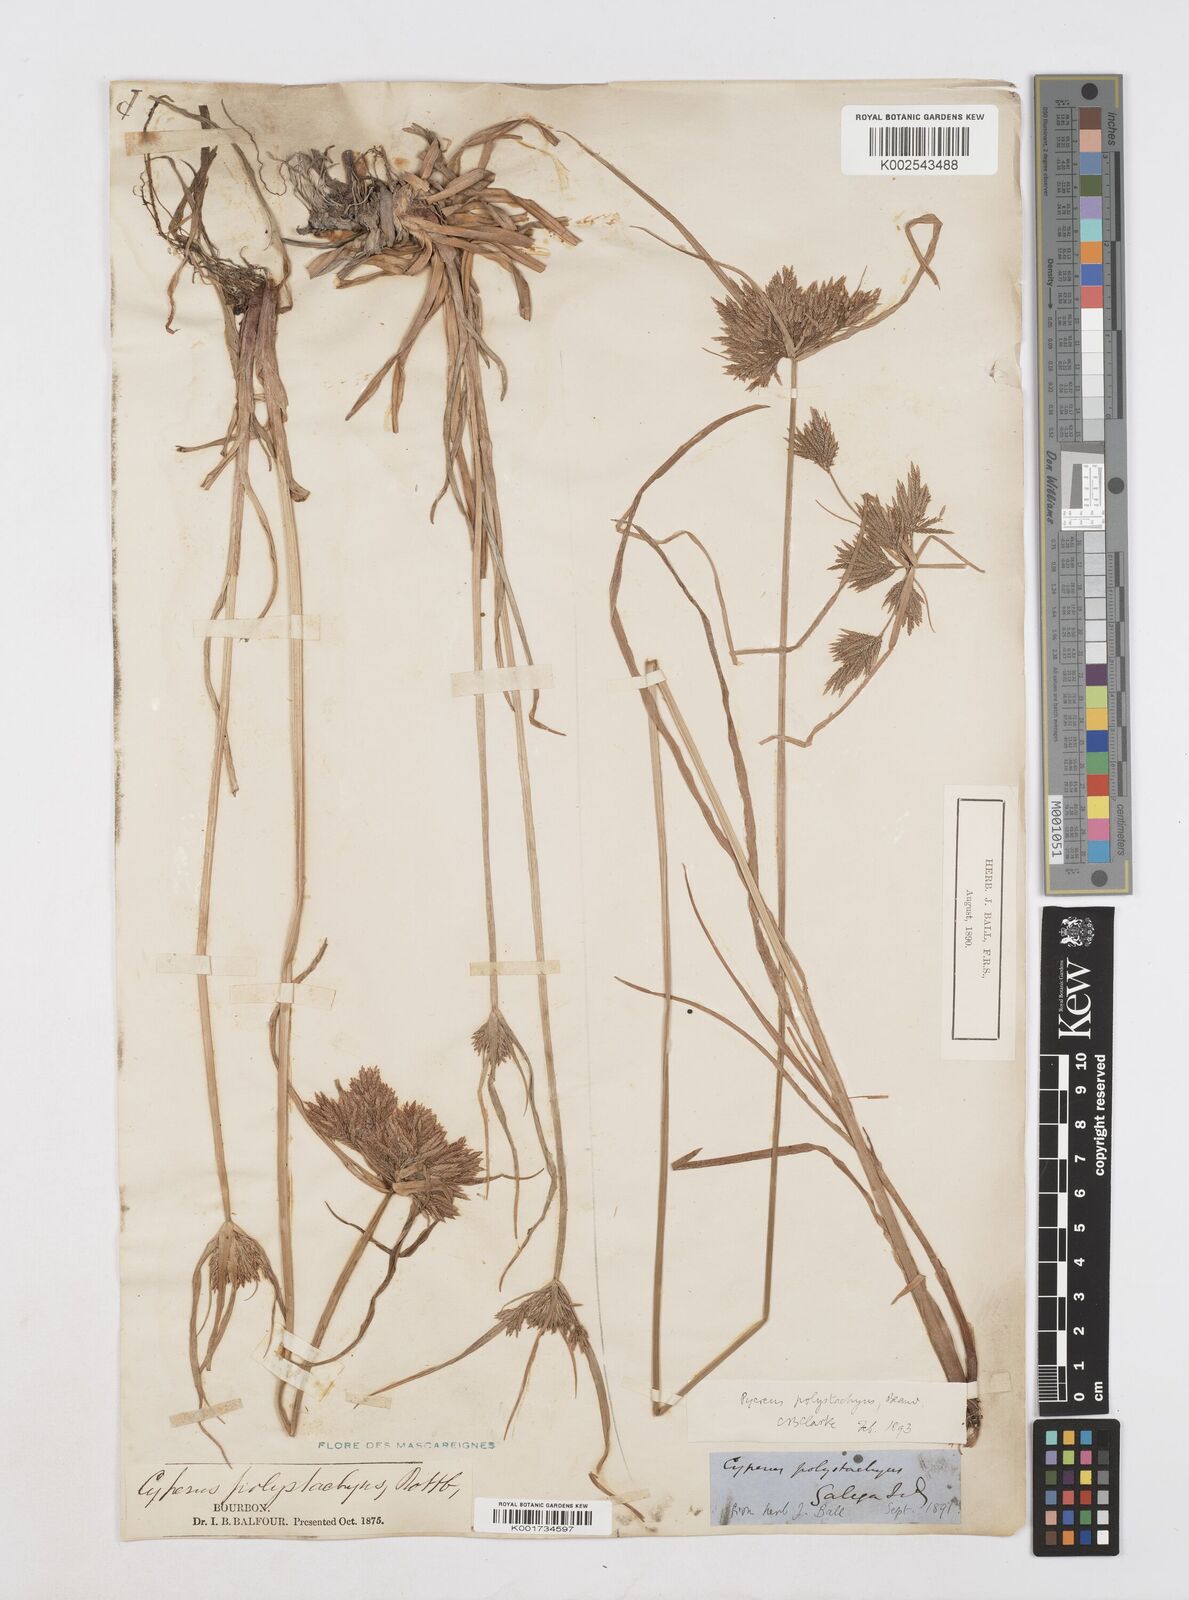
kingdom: Plantae
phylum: Tracheophyta
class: Liliopsida
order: Poales
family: Cyperaceae
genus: Cyperus
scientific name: Cyperus polystachyos
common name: Bunchy flat sedge
